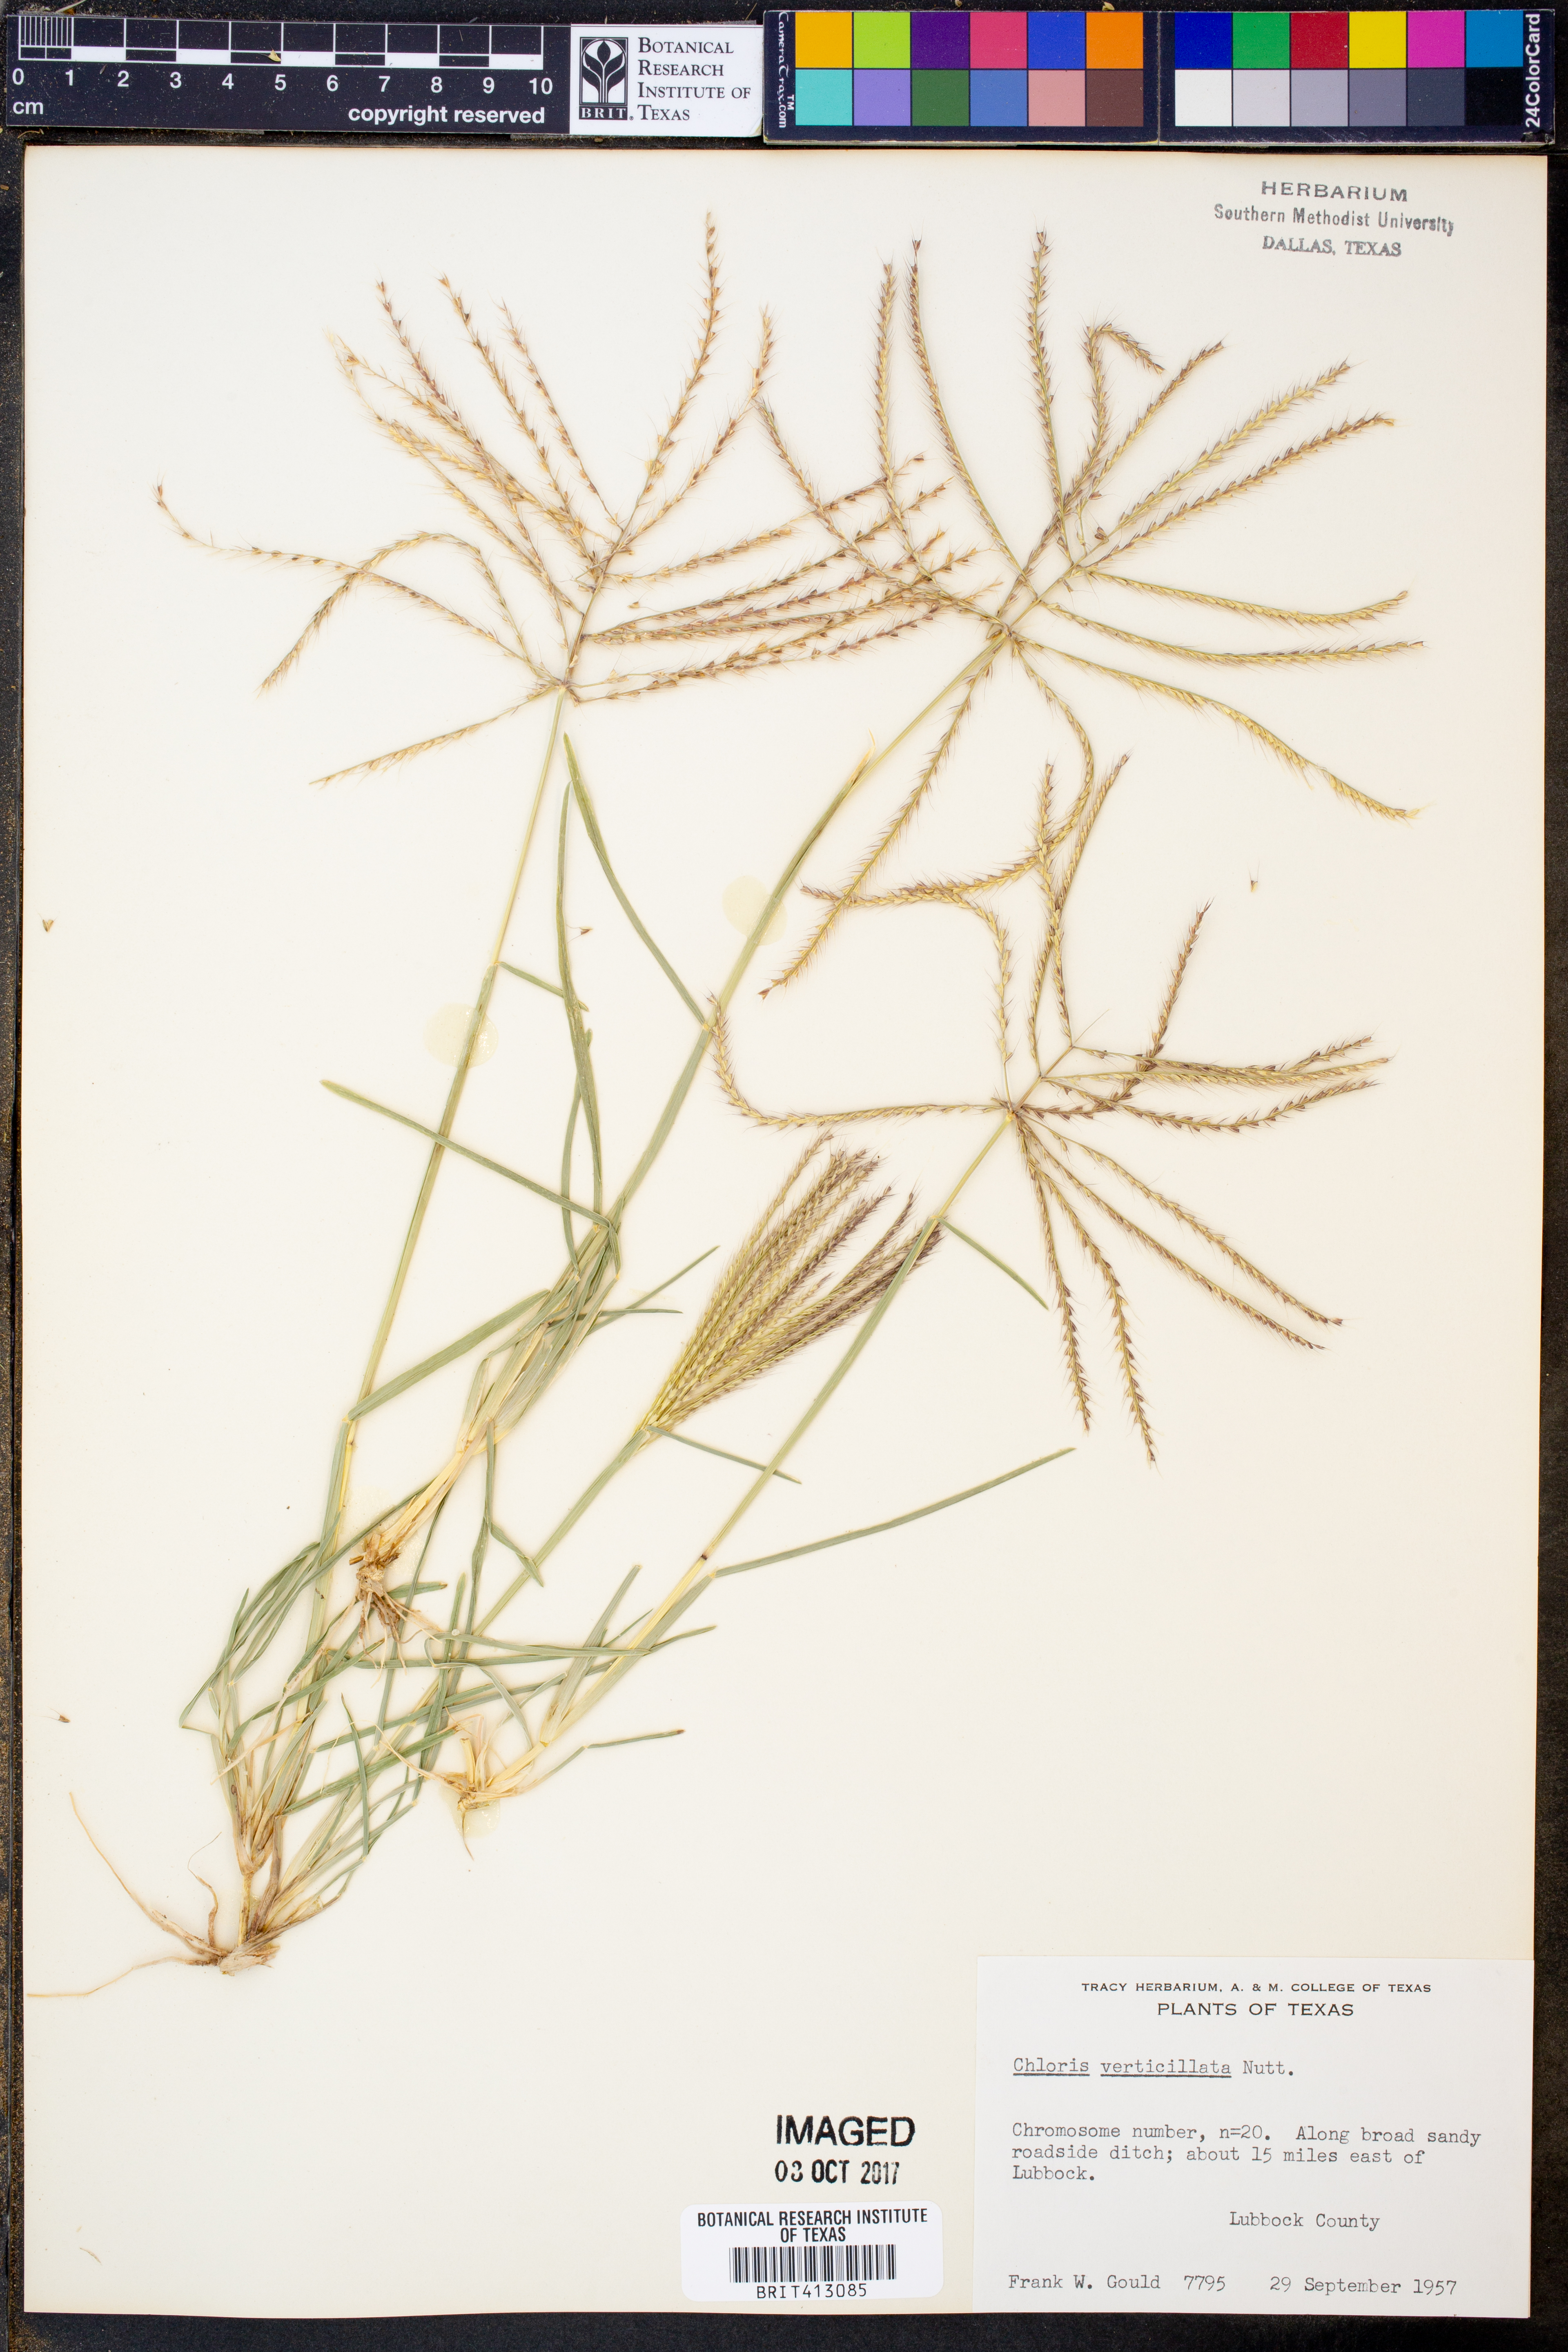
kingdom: Plantae
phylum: Tracheophyta
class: Liliopsida
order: Poales
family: Poaceae
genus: Chloris
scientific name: Chloris verticillata
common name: Tumble windmill grass
